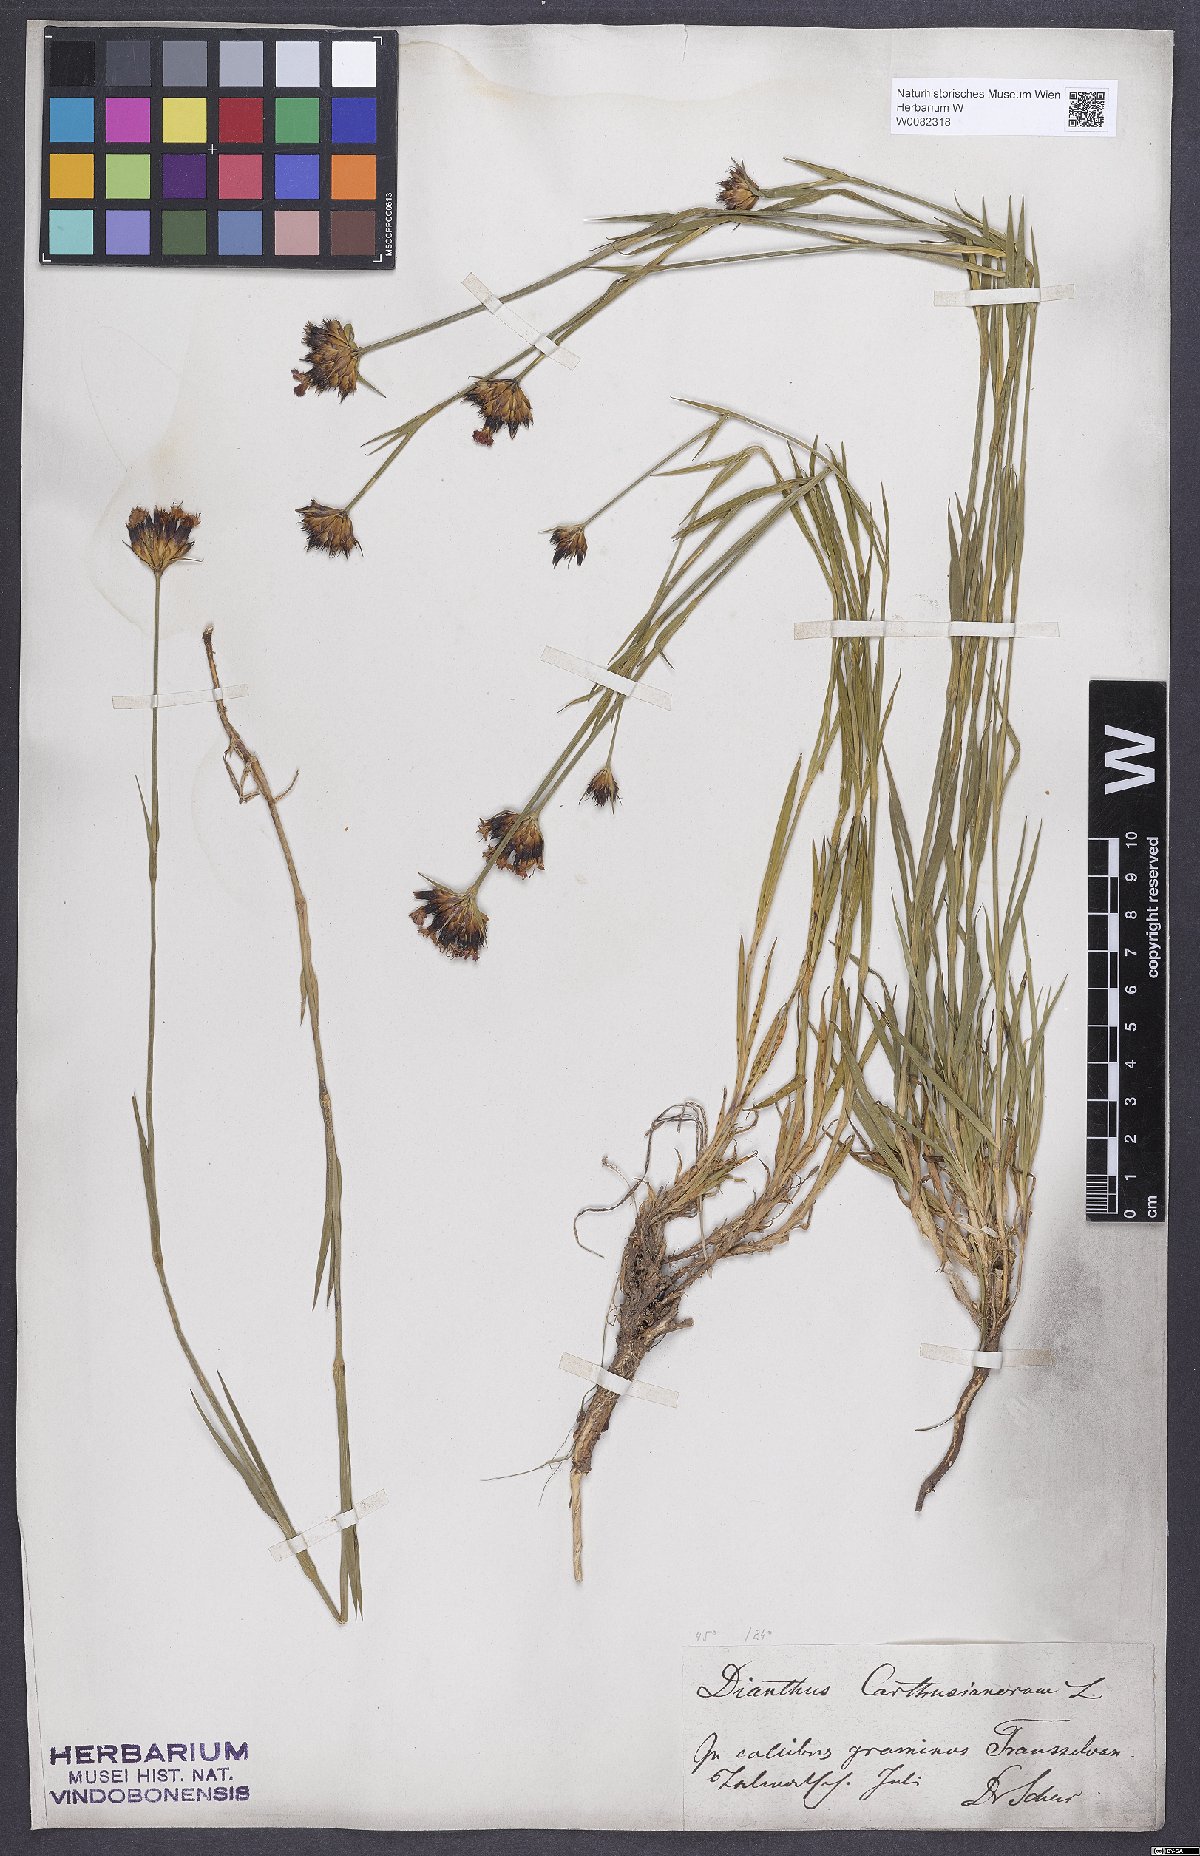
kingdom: Plantae
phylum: Tracheophyta
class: Magnoliopsida
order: Caryophyllales
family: Caryophyllaceae
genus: Dianthus
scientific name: Dianthus carthusianorum
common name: Carthusian pink
